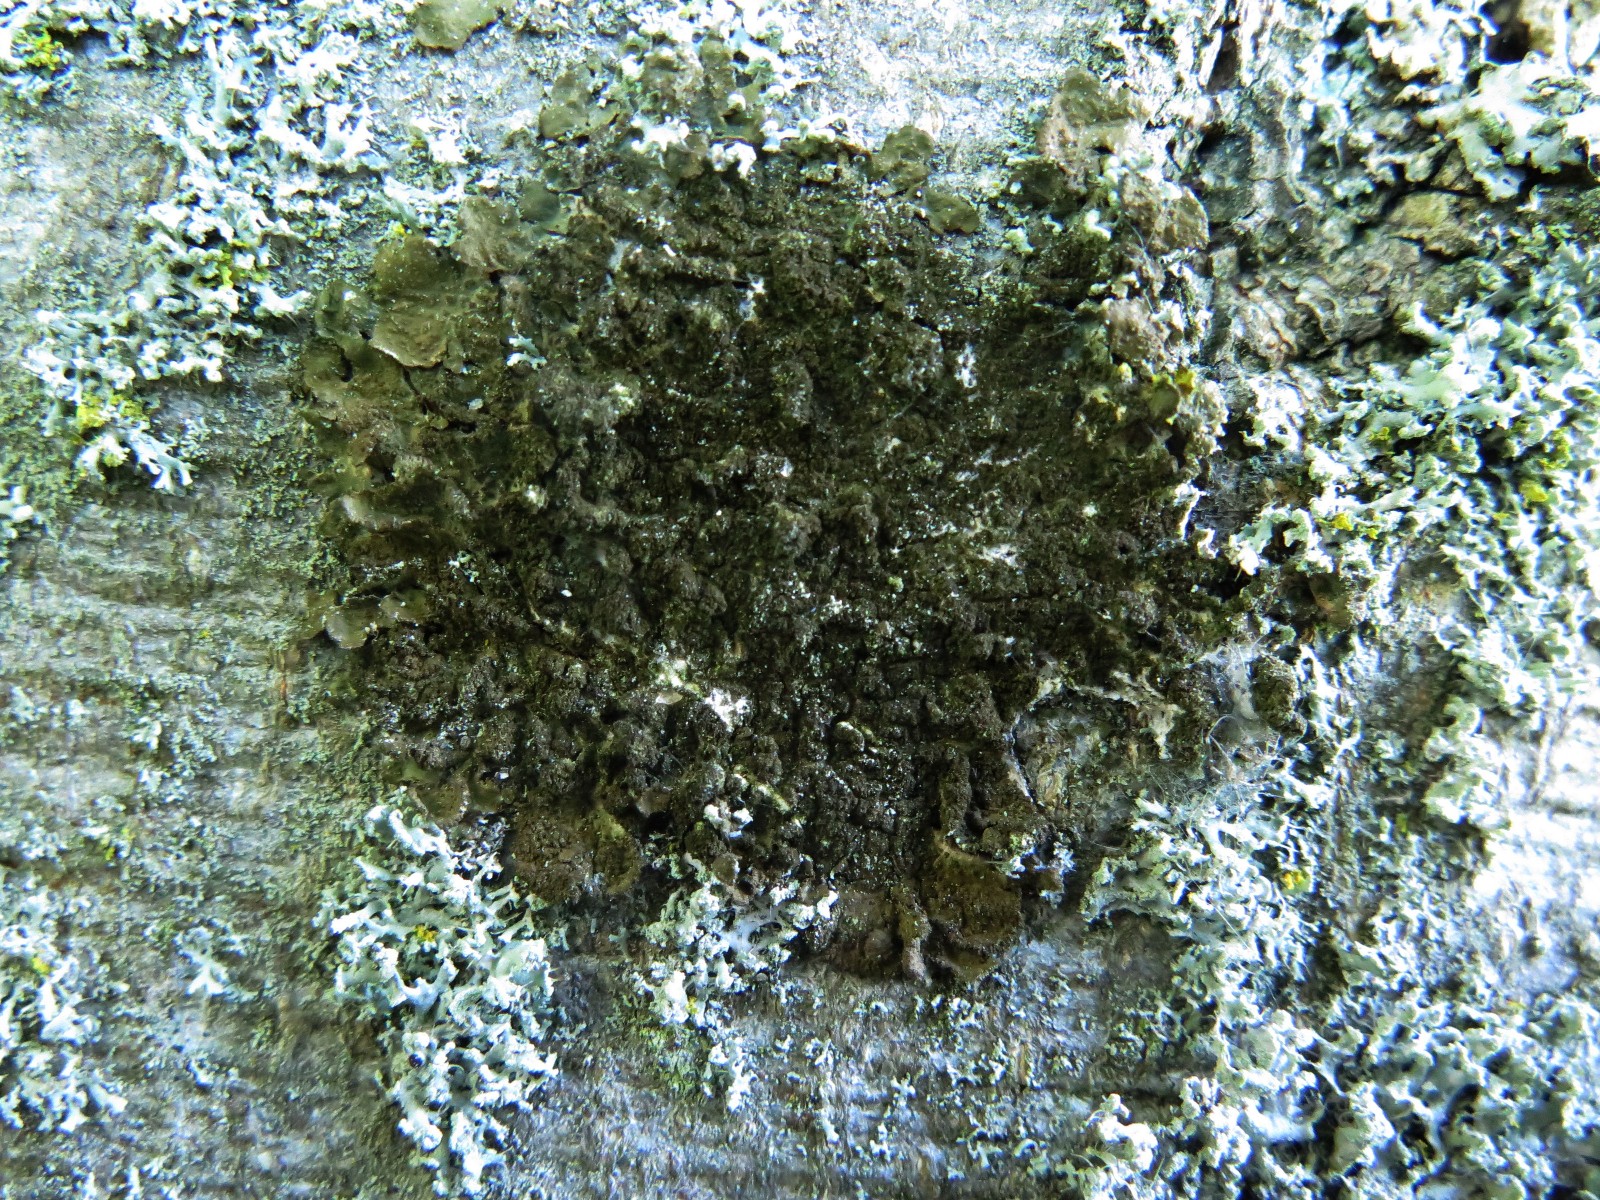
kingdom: Fungi
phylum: Ascomycota
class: Lecanoromycetes
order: Lecanorales
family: Parmeliaceae
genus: Melanelixia
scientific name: Melanelixia subaurifera
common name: guldpudret skållav
